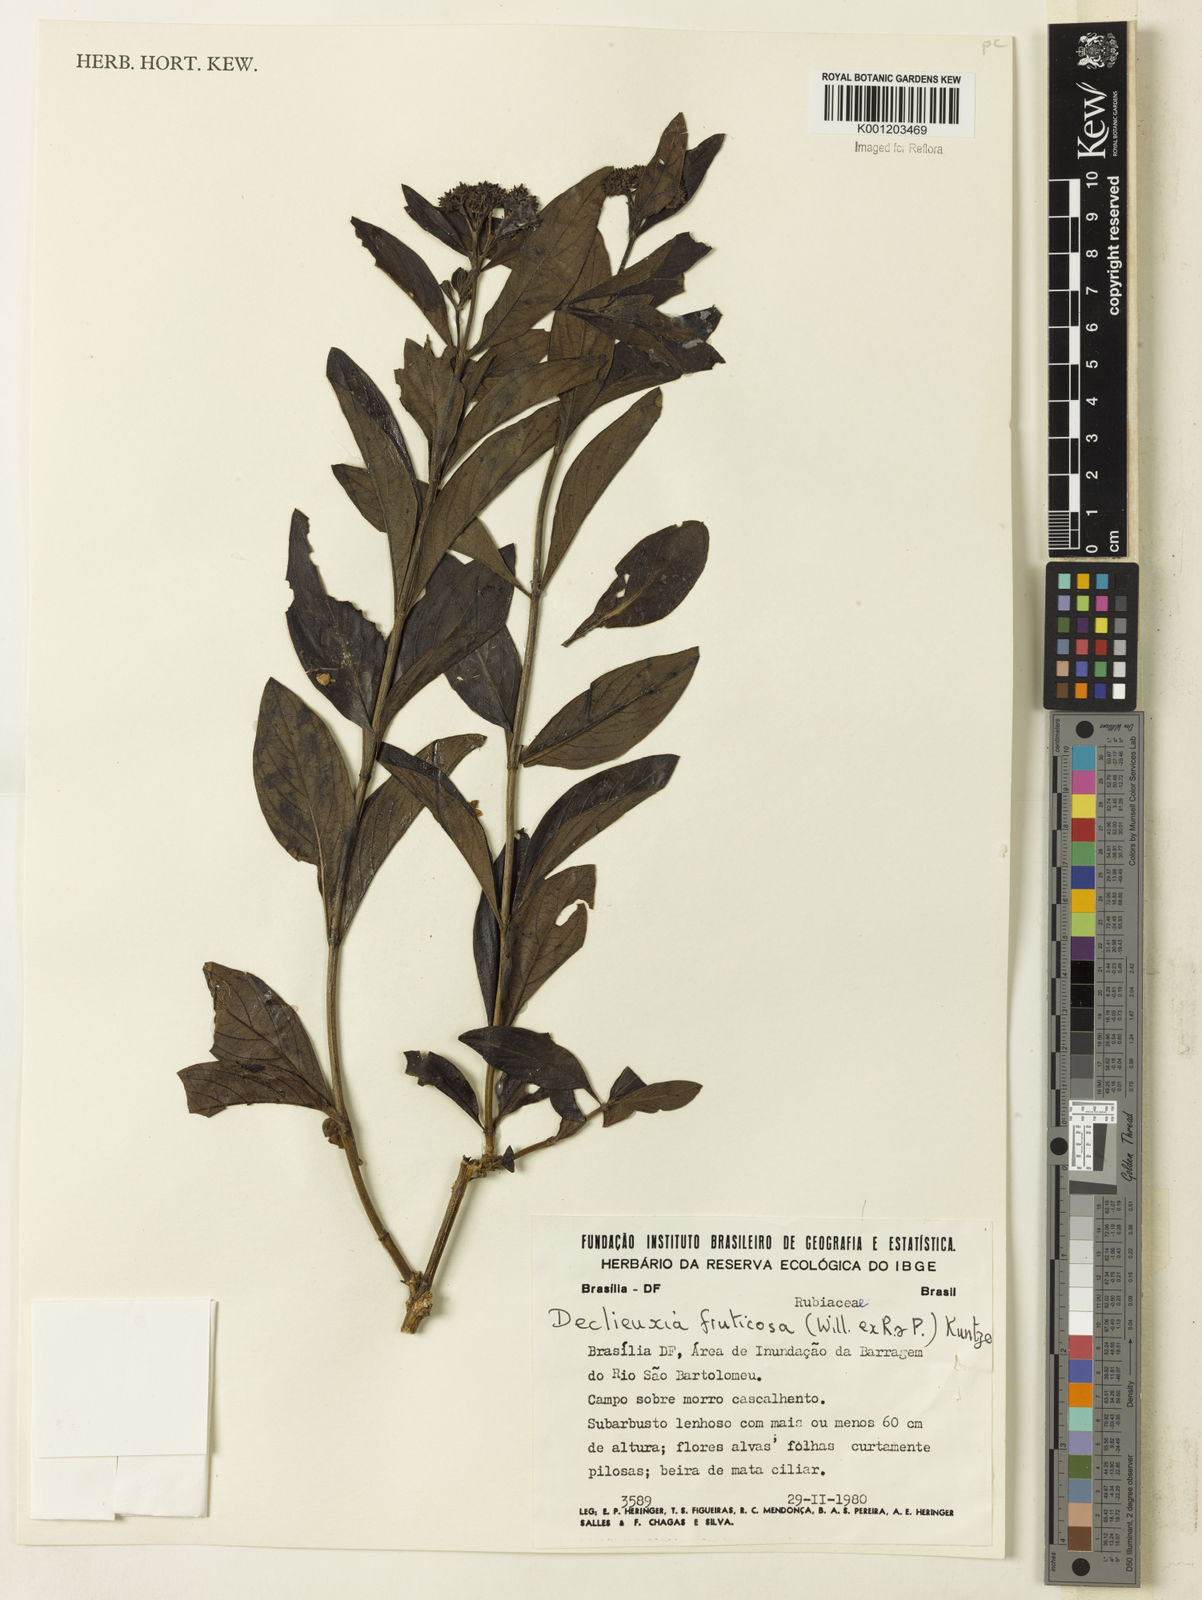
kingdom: Plantae
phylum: Tracheophyta
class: Magnoliopsida
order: Gentianales
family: Rubiaceae
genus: Declieuxia
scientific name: Declieuxia fruticosa
